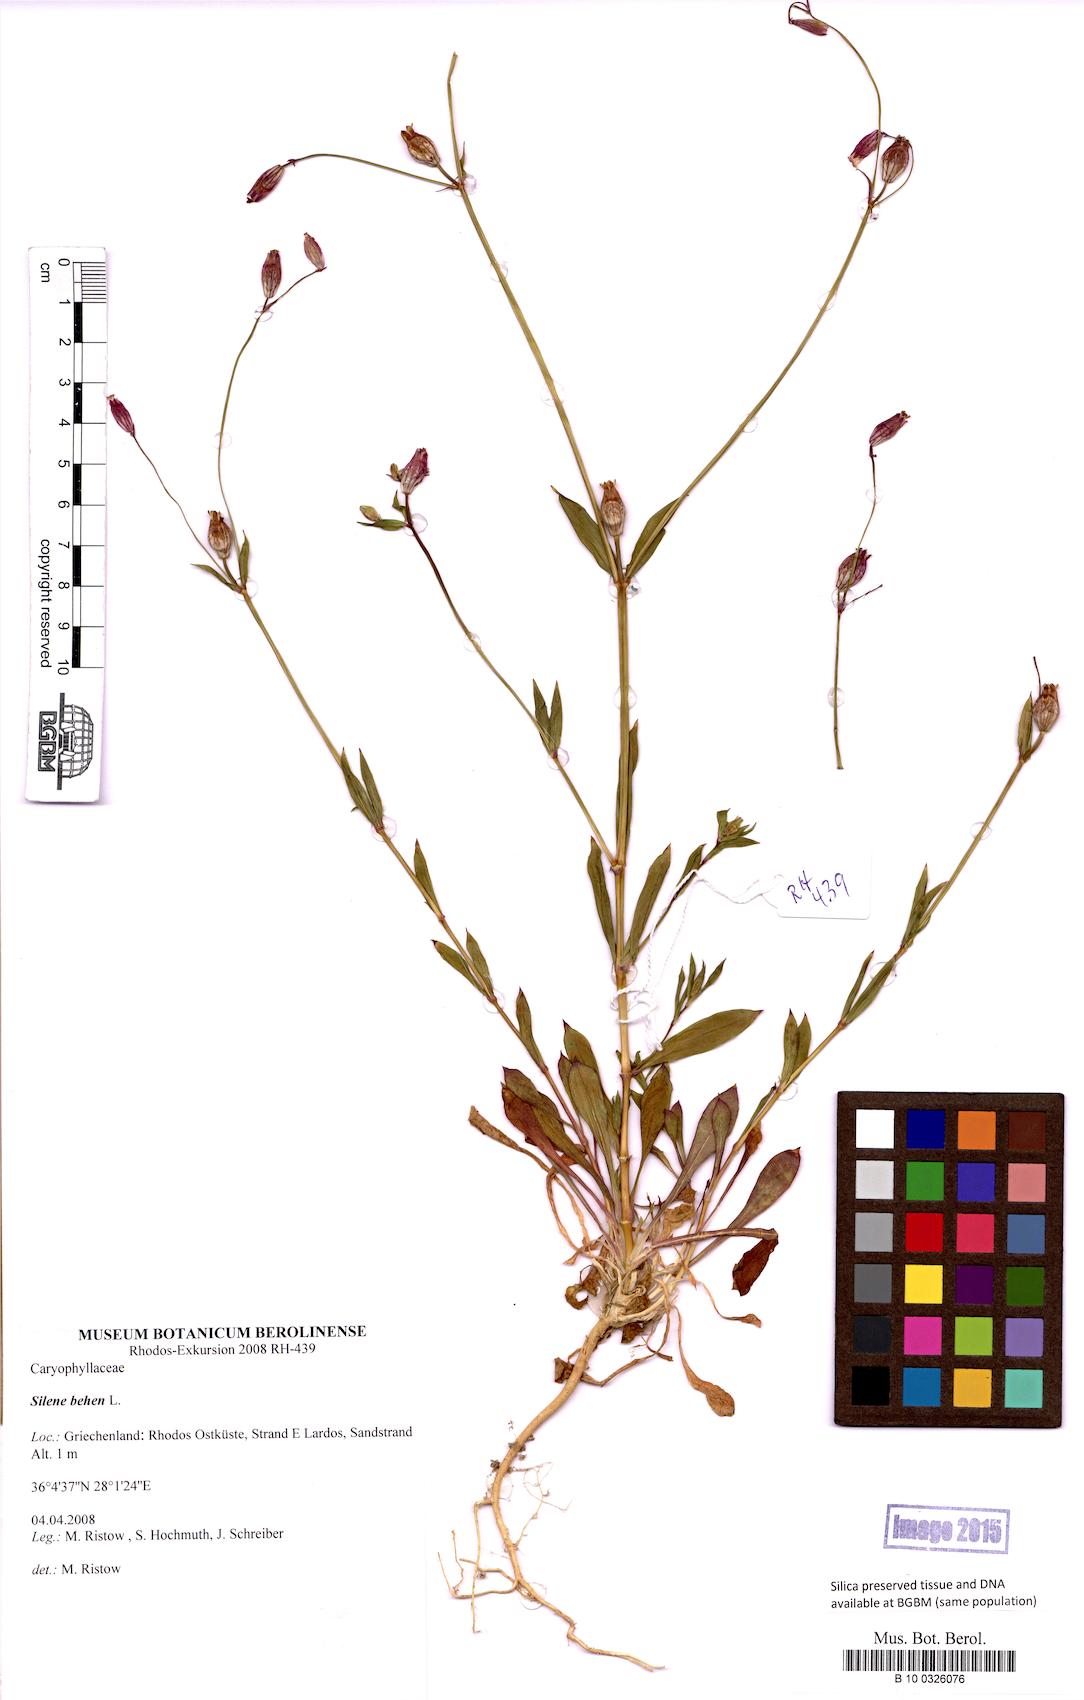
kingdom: Plantae
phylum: Tracheophyta
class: Magnoliopsida
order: Caryophyllales
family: Caryophyllaceae
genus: Silene
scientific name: Silene behen
